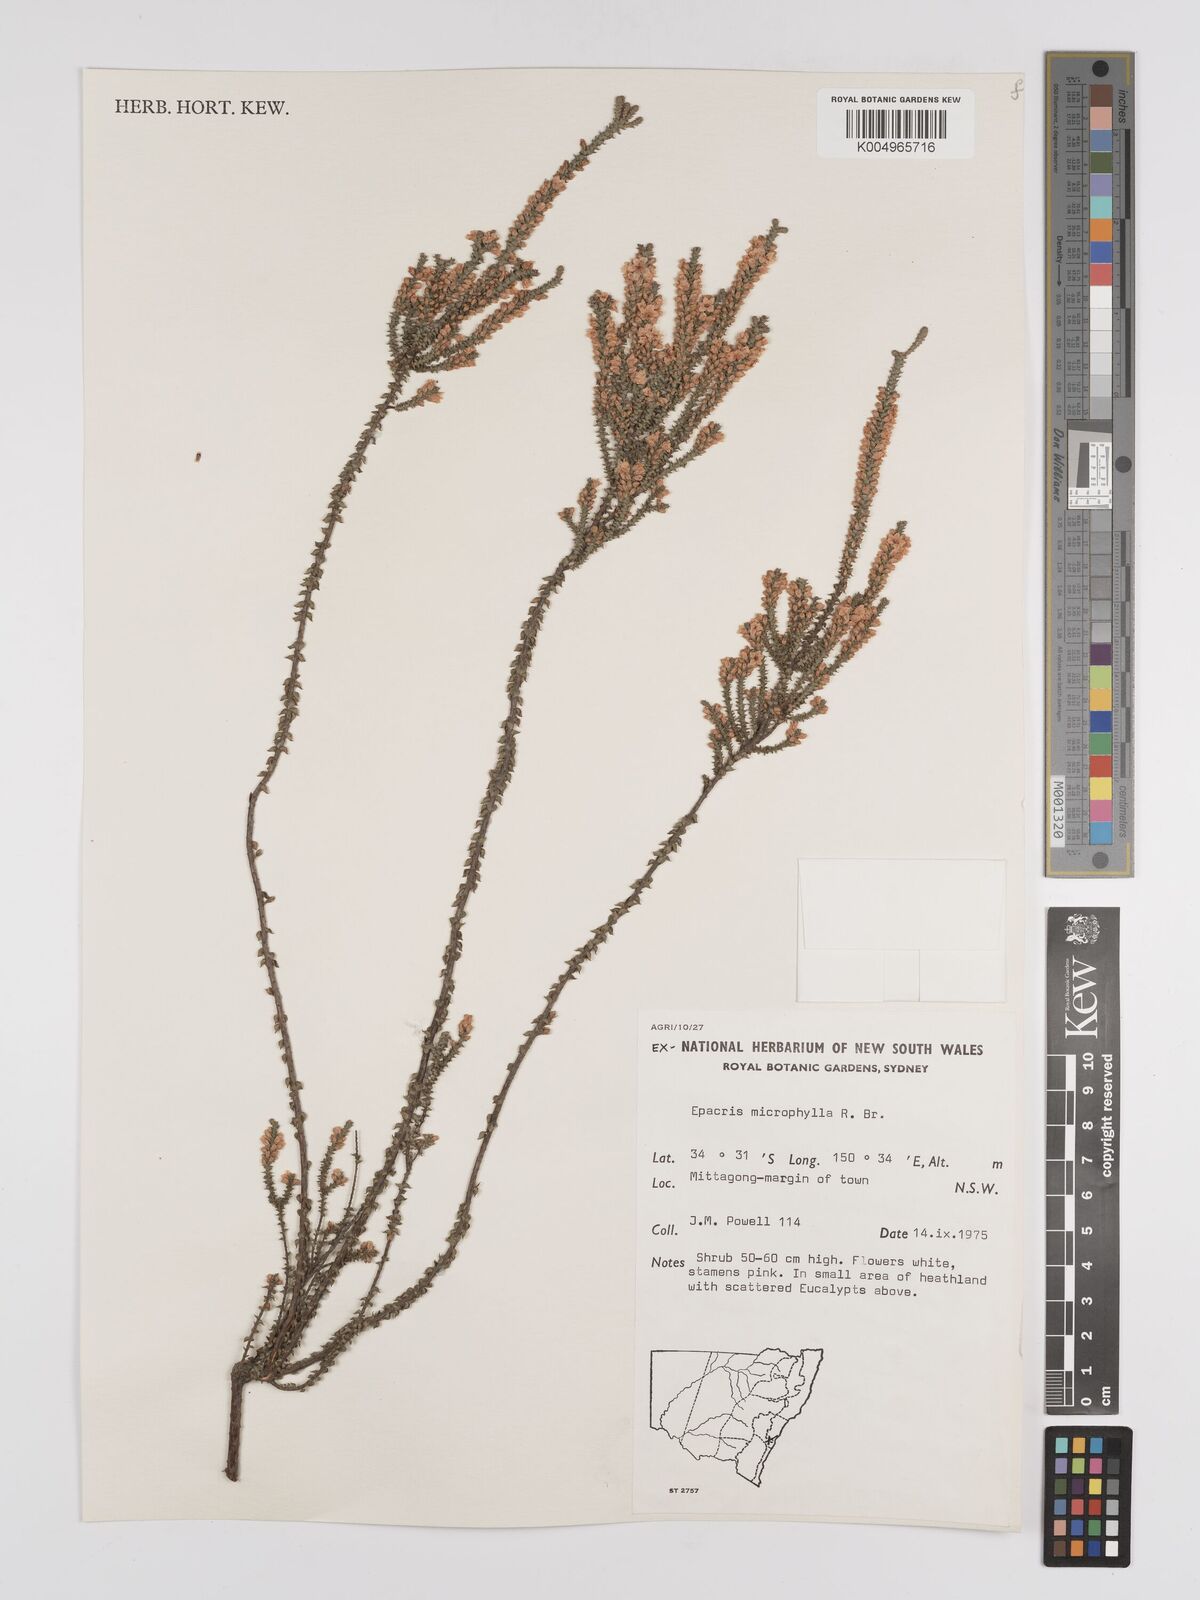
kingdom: Plantae
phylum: Tracheophyta
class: Magnoliopsida
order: Ericales
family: Ericaceae
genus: Epacris
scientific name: Epacris
